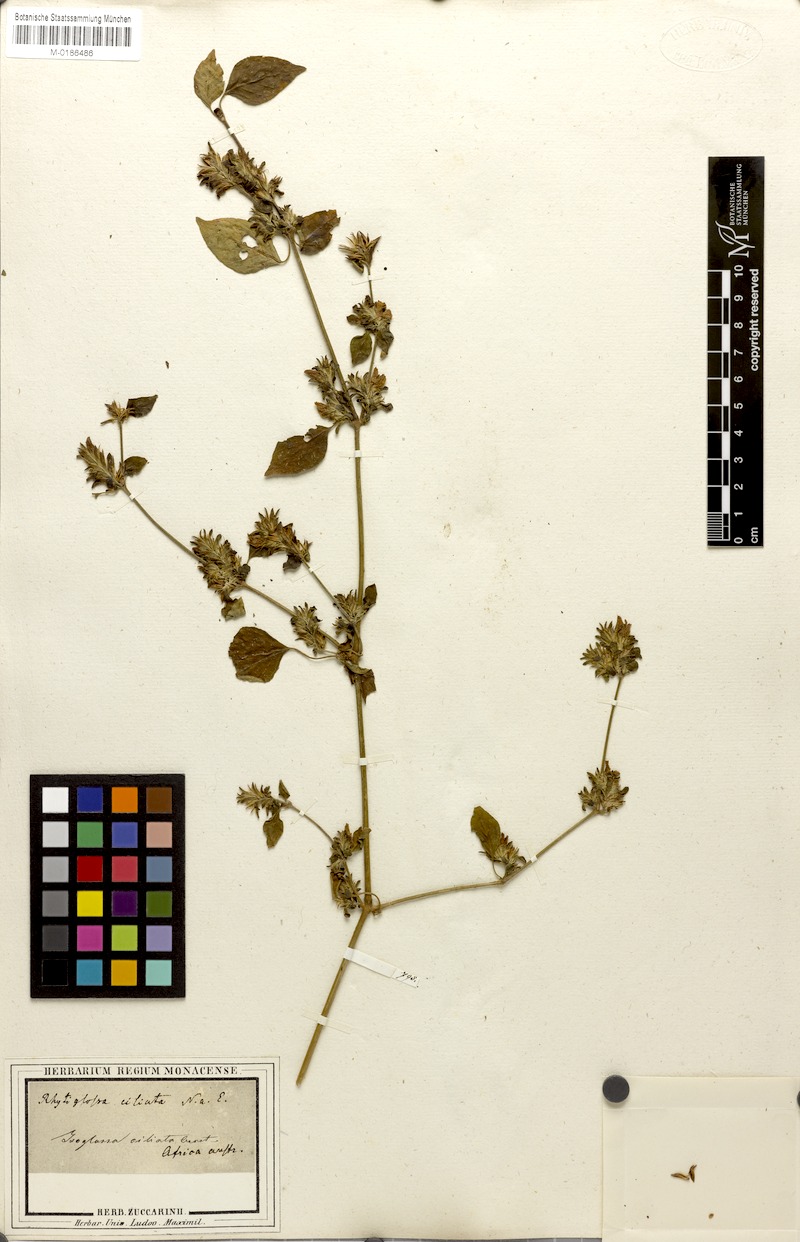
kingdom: Plantae
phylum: Tracheophyta
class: Magnoliopsida
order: Lamiales
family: Acanthaceae
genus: Isoglossa
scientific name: Isoglossa ciliata
